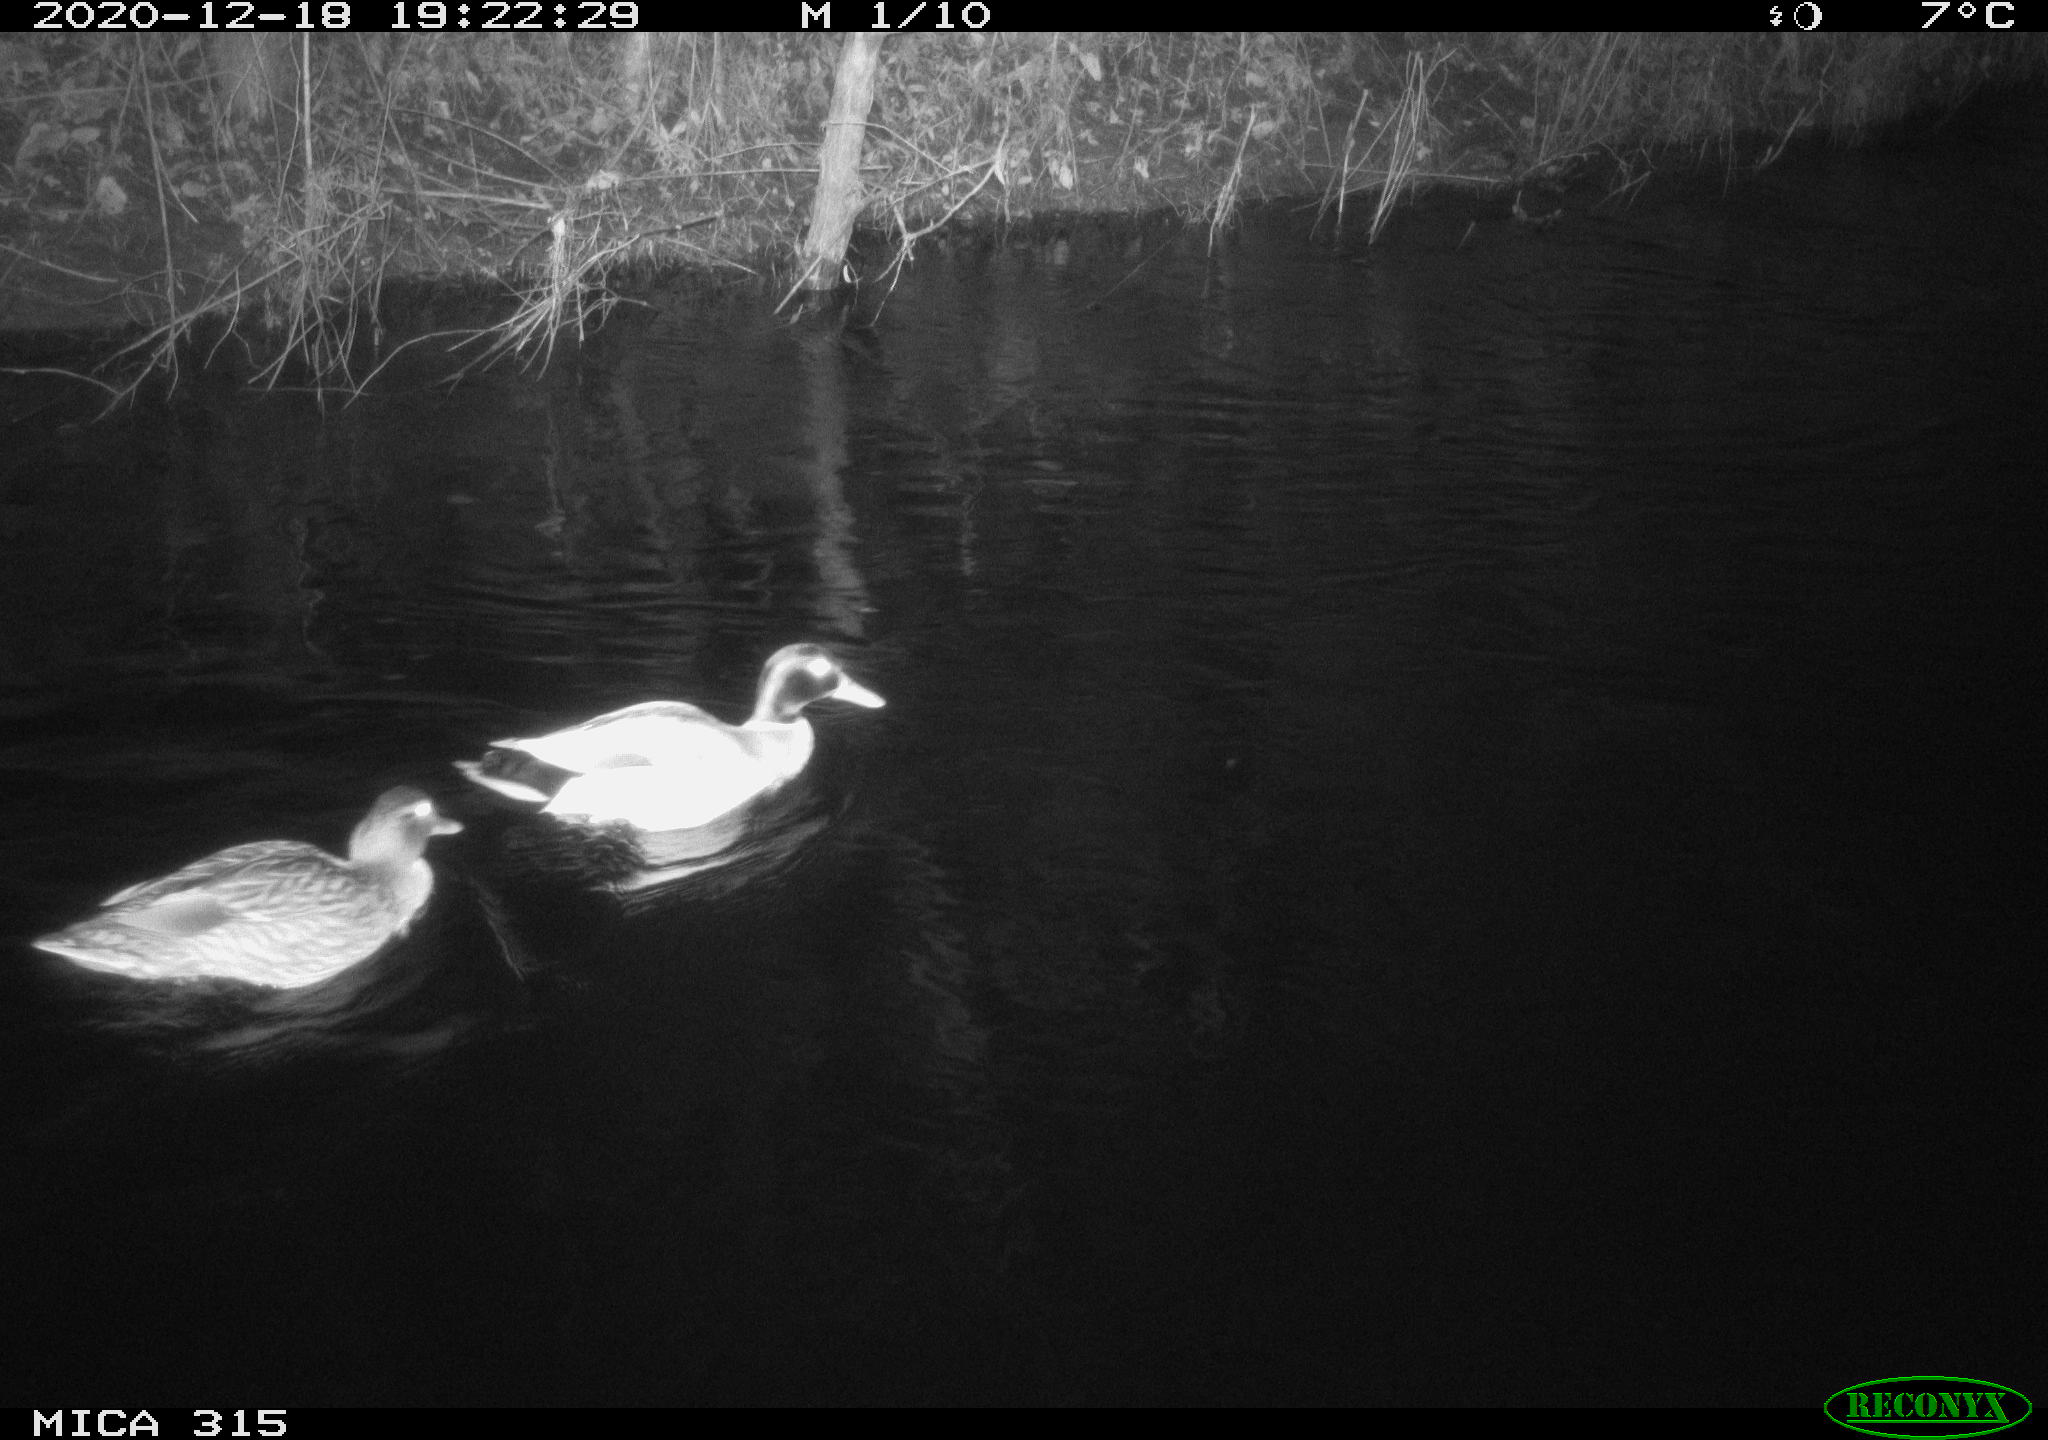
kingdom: Animalia
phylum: Chordata
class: Aves
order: Anseriformes
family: Anatidae
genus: Anas
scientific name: Anas platyrhynchos
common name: Mallard
